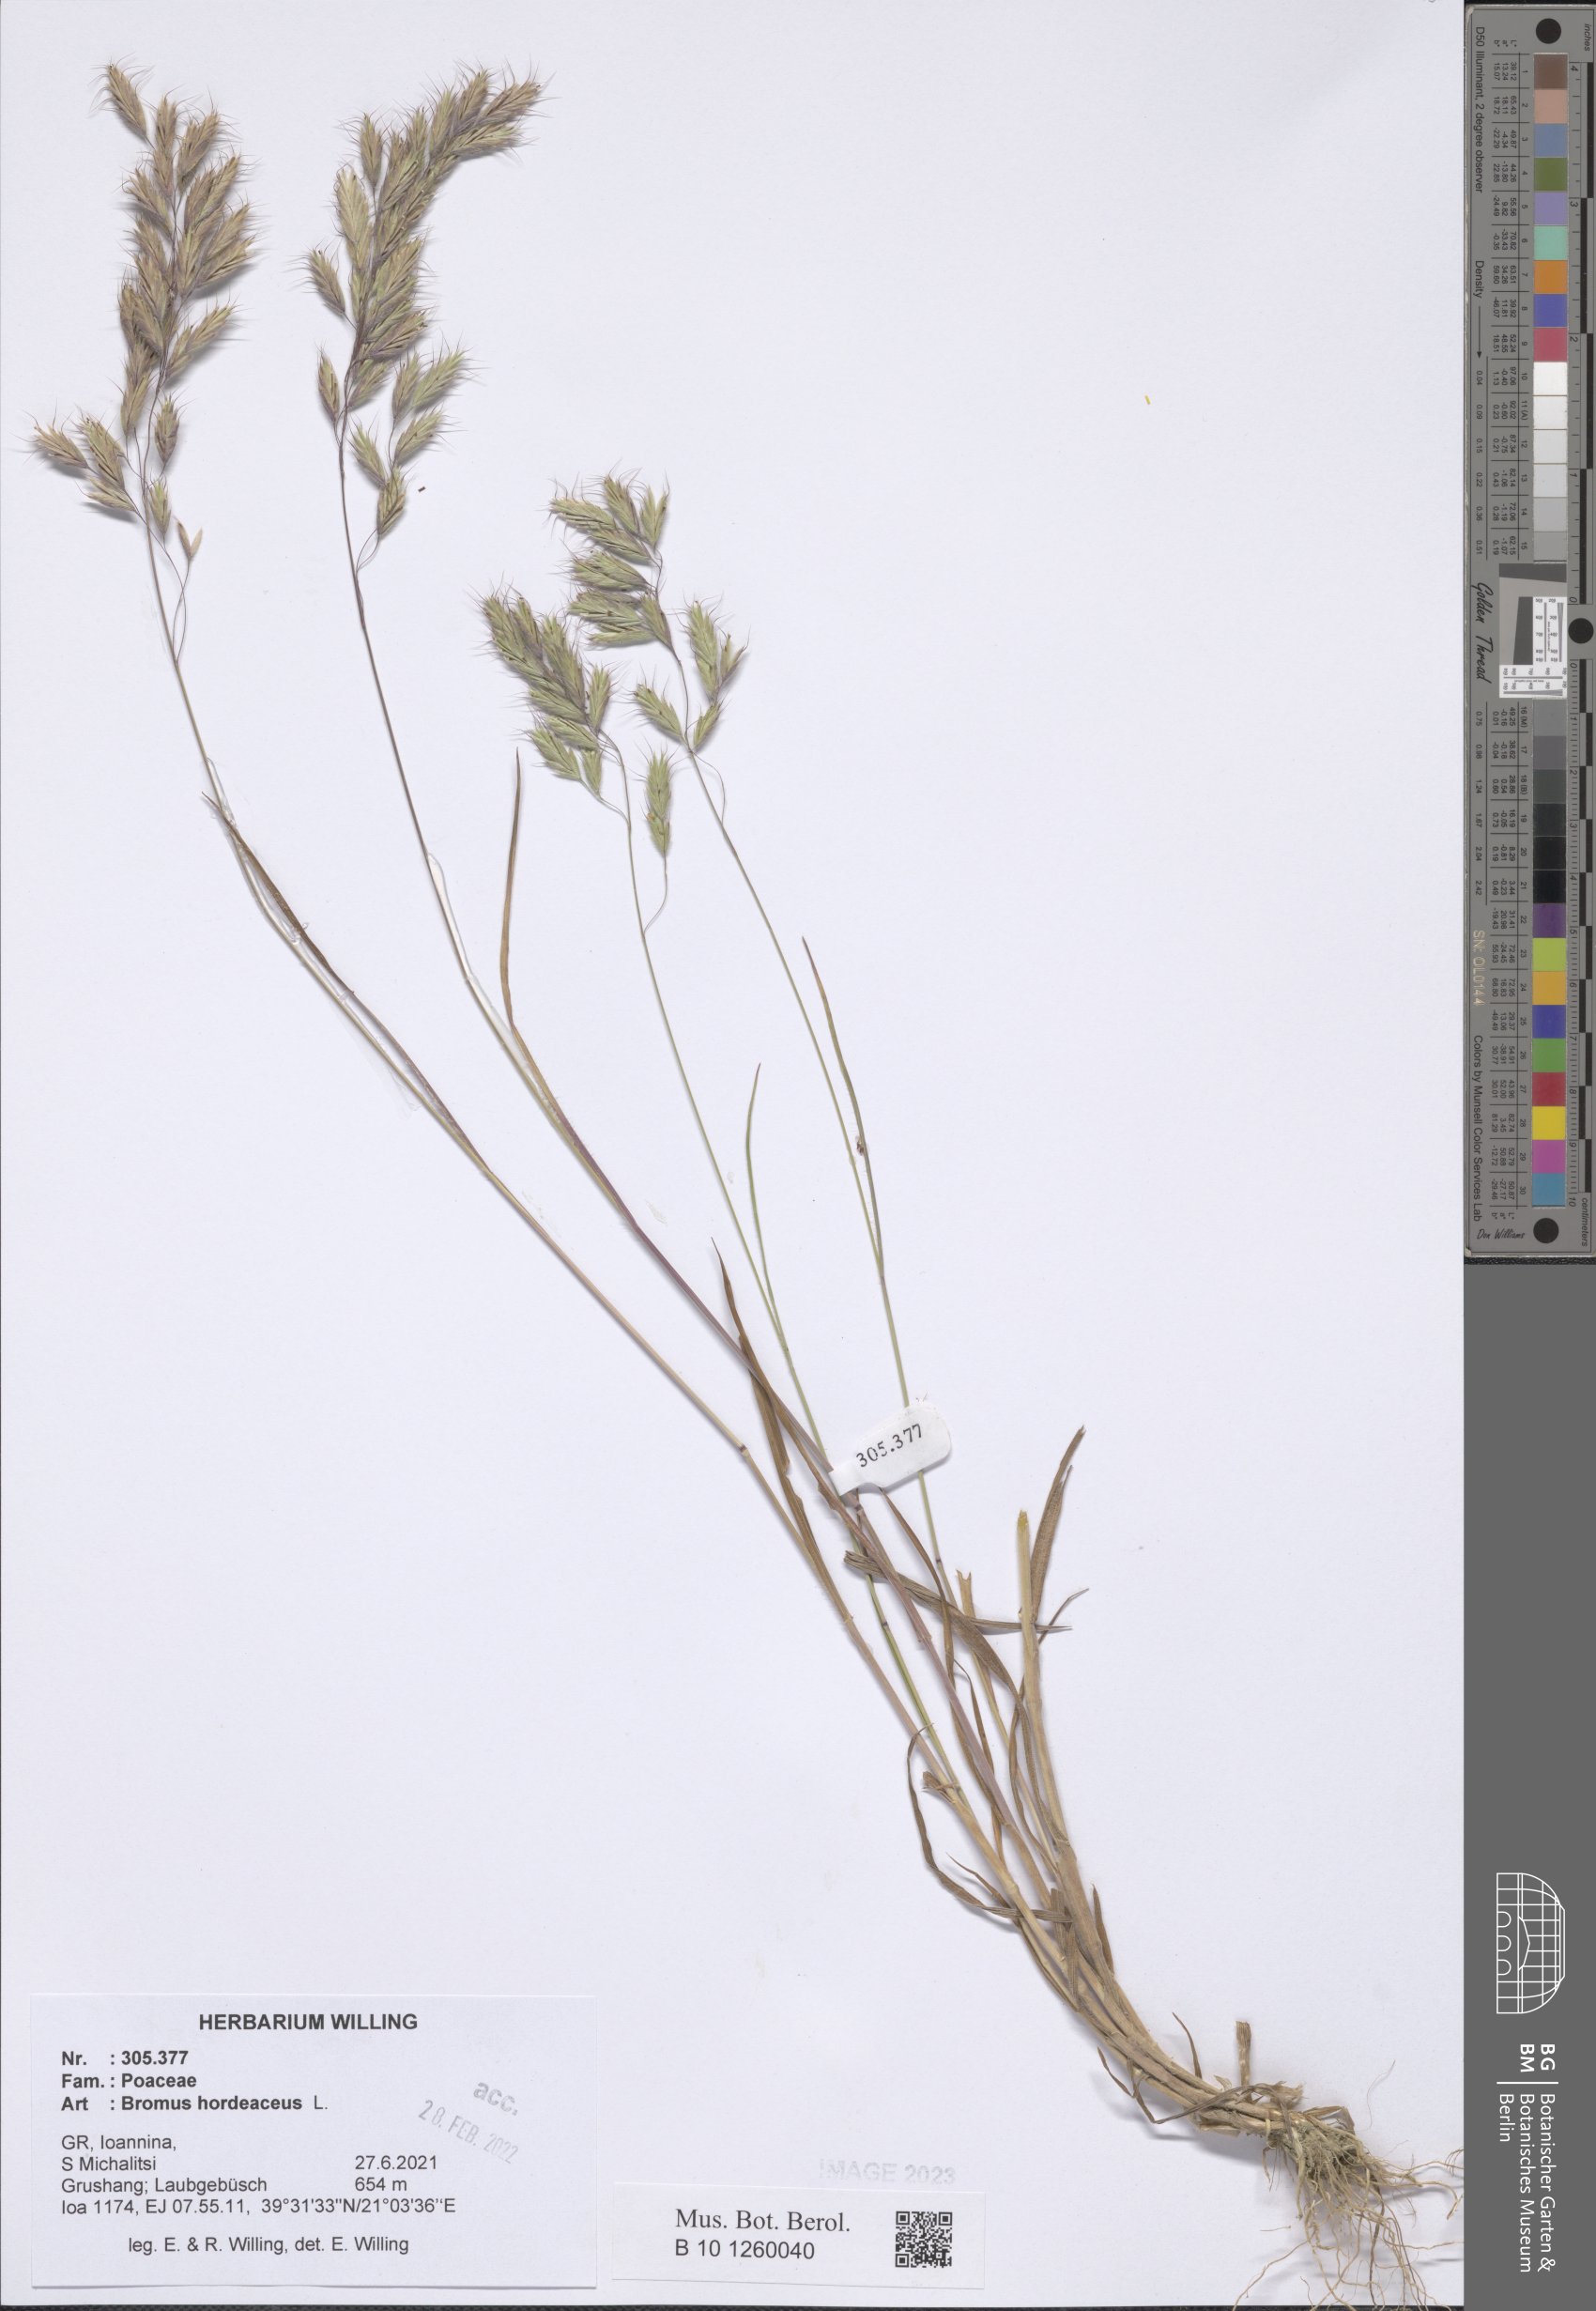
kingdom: Plantae
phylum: Tracheophyta
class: Liliopsida
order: Poales
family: Poaceae
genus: Bromus
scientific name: Bromus hordeaceus
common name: Soft brome
